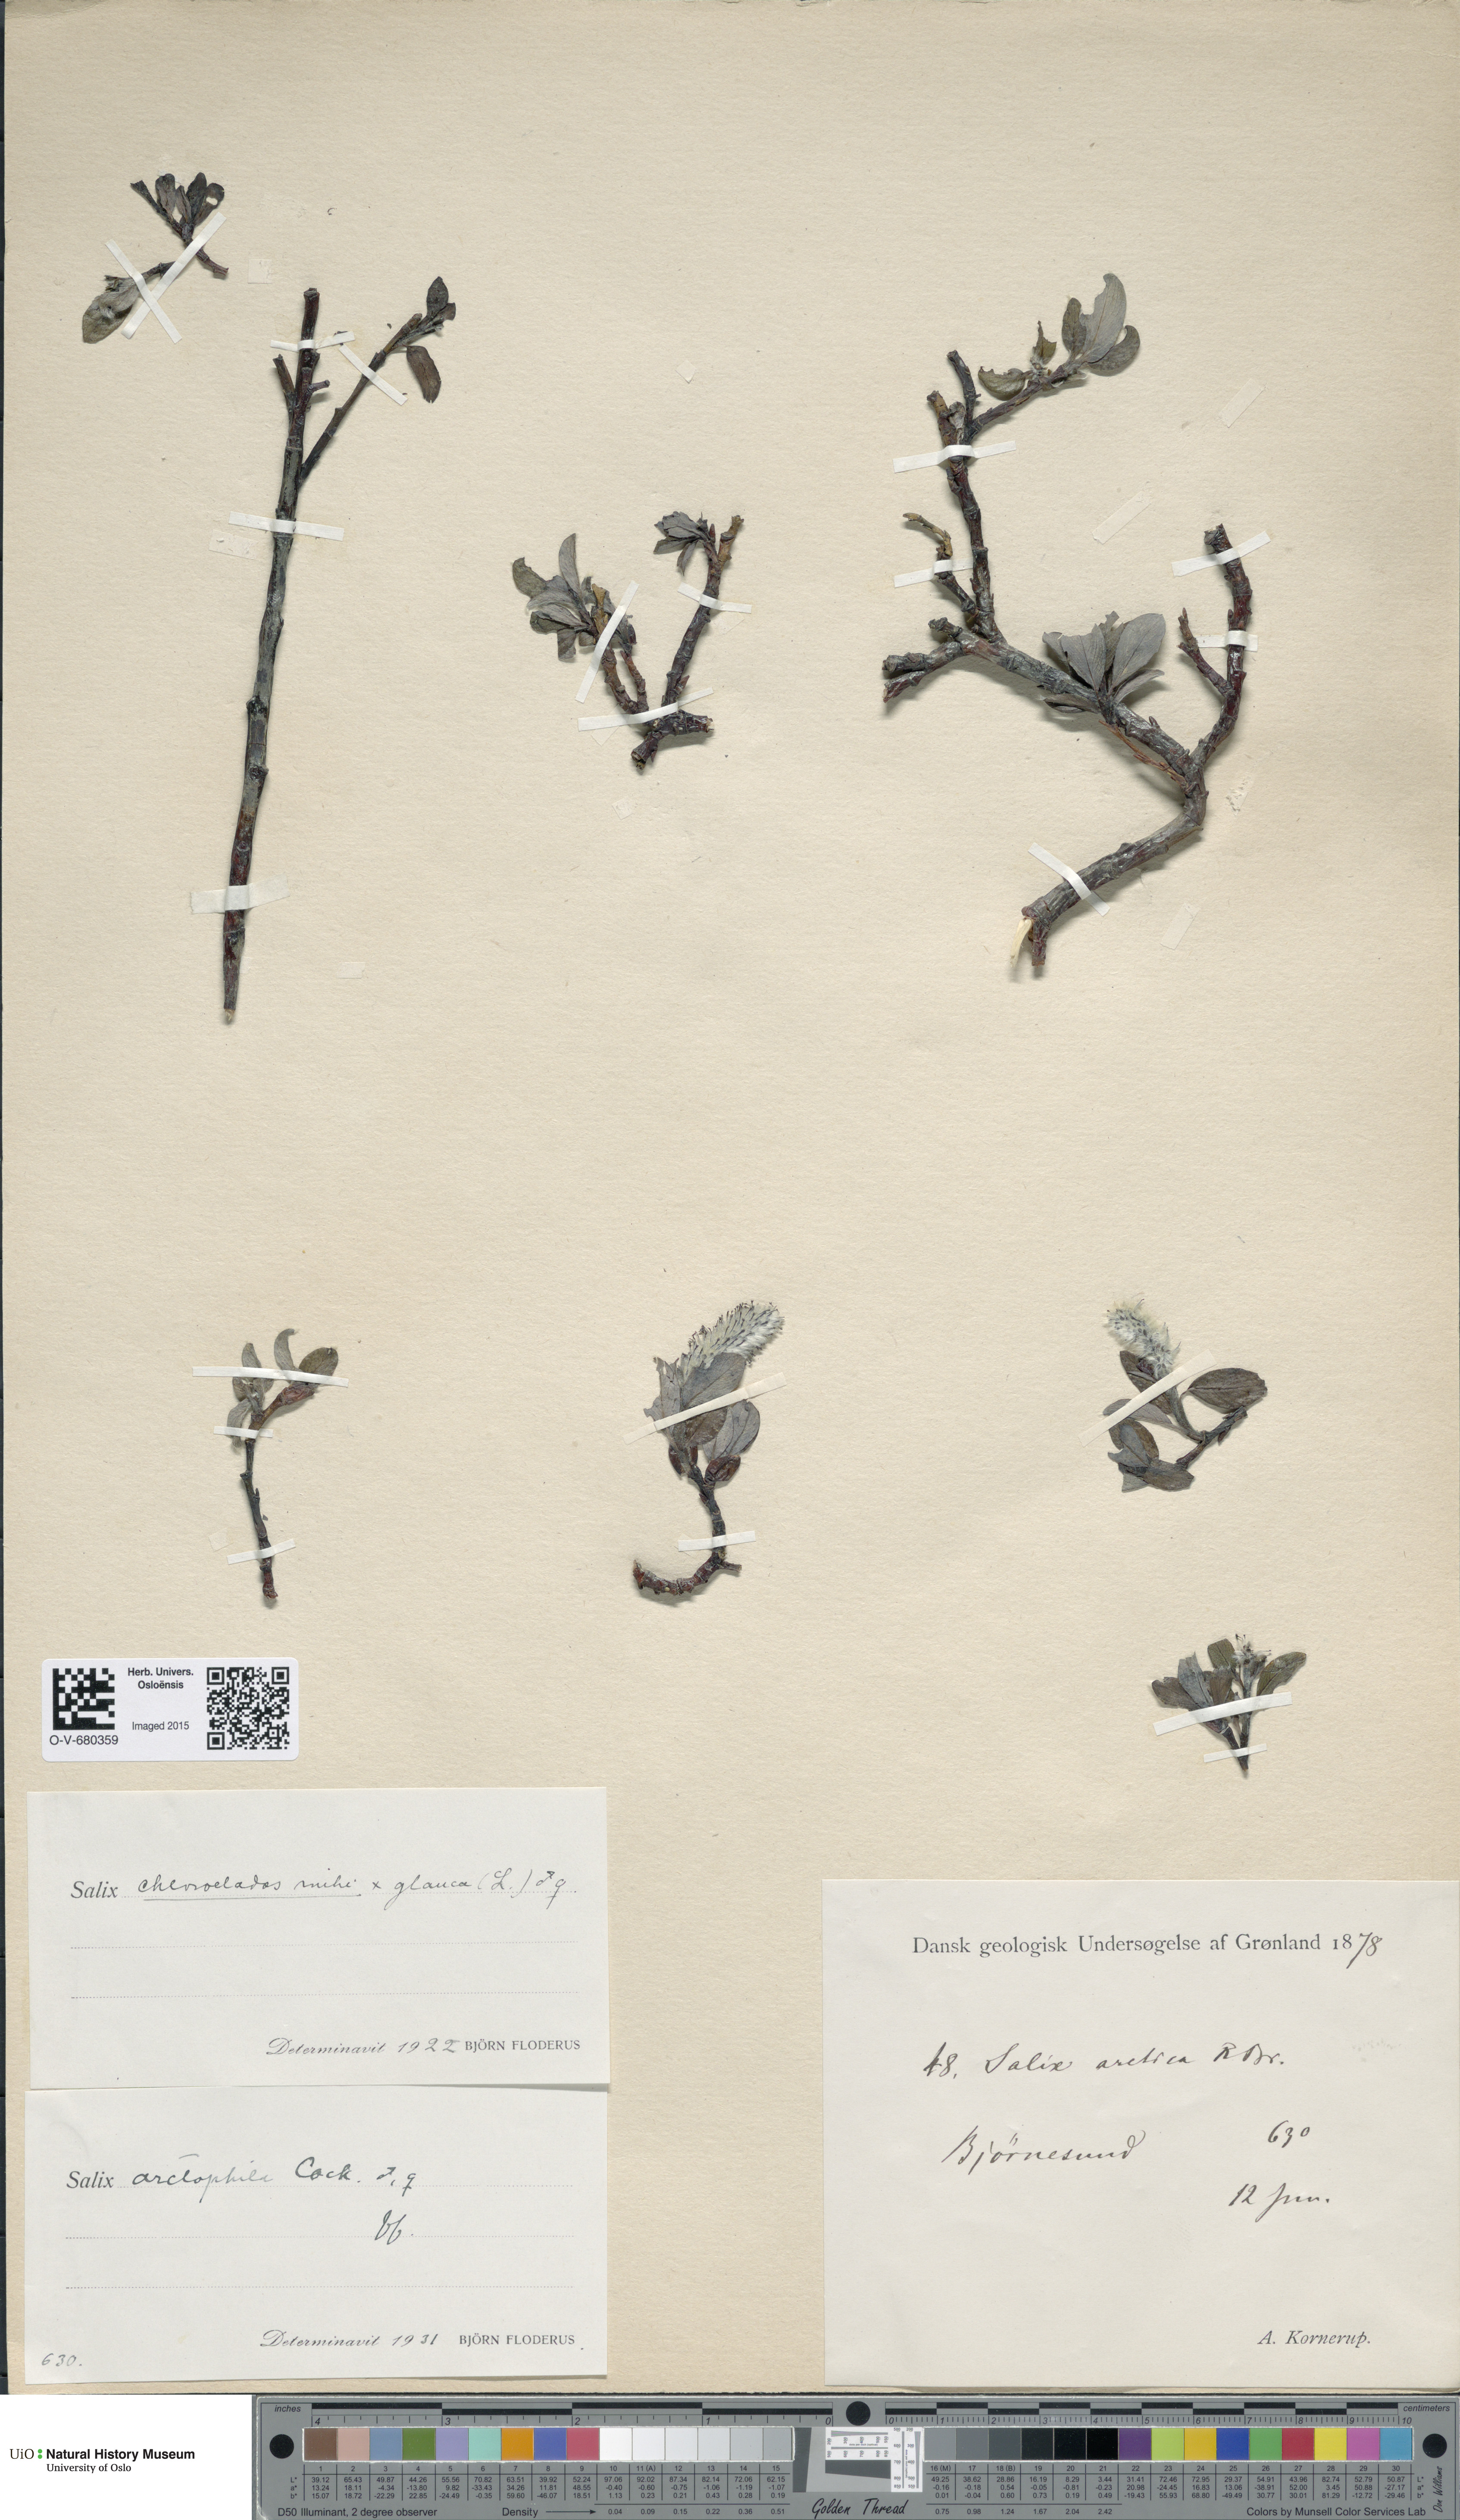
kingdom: Plantae
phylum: Tracheophyta
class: Magnoliopsida
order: Malpighiales
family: Salicaceae
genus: Salix
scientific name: Salix
